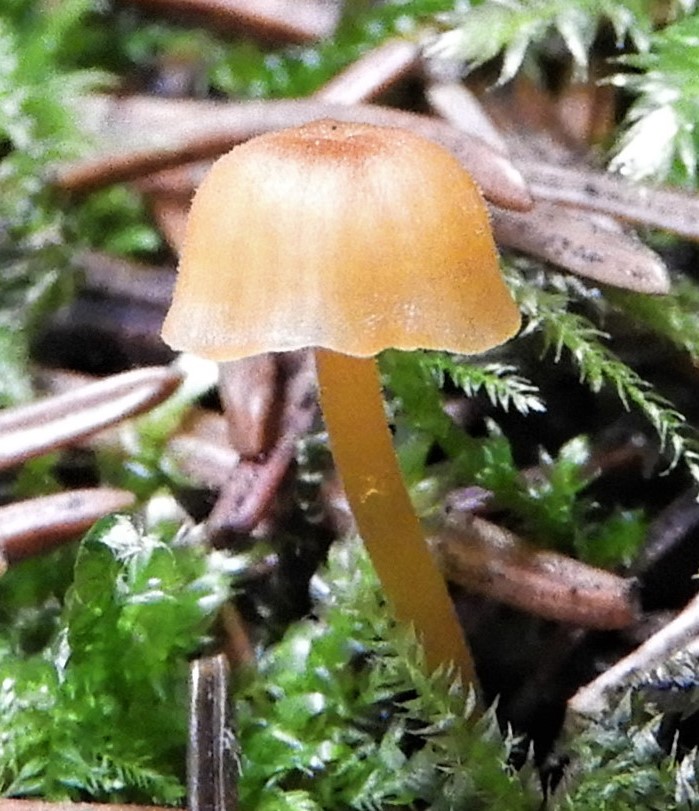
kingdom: Fungi
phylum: Basidiomycota
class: Agaricomycetes
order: Hymenochaetales
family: Rickenellaceae
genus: Rickenella
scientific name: Rickenella fibula
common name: orange mosnavlehat
